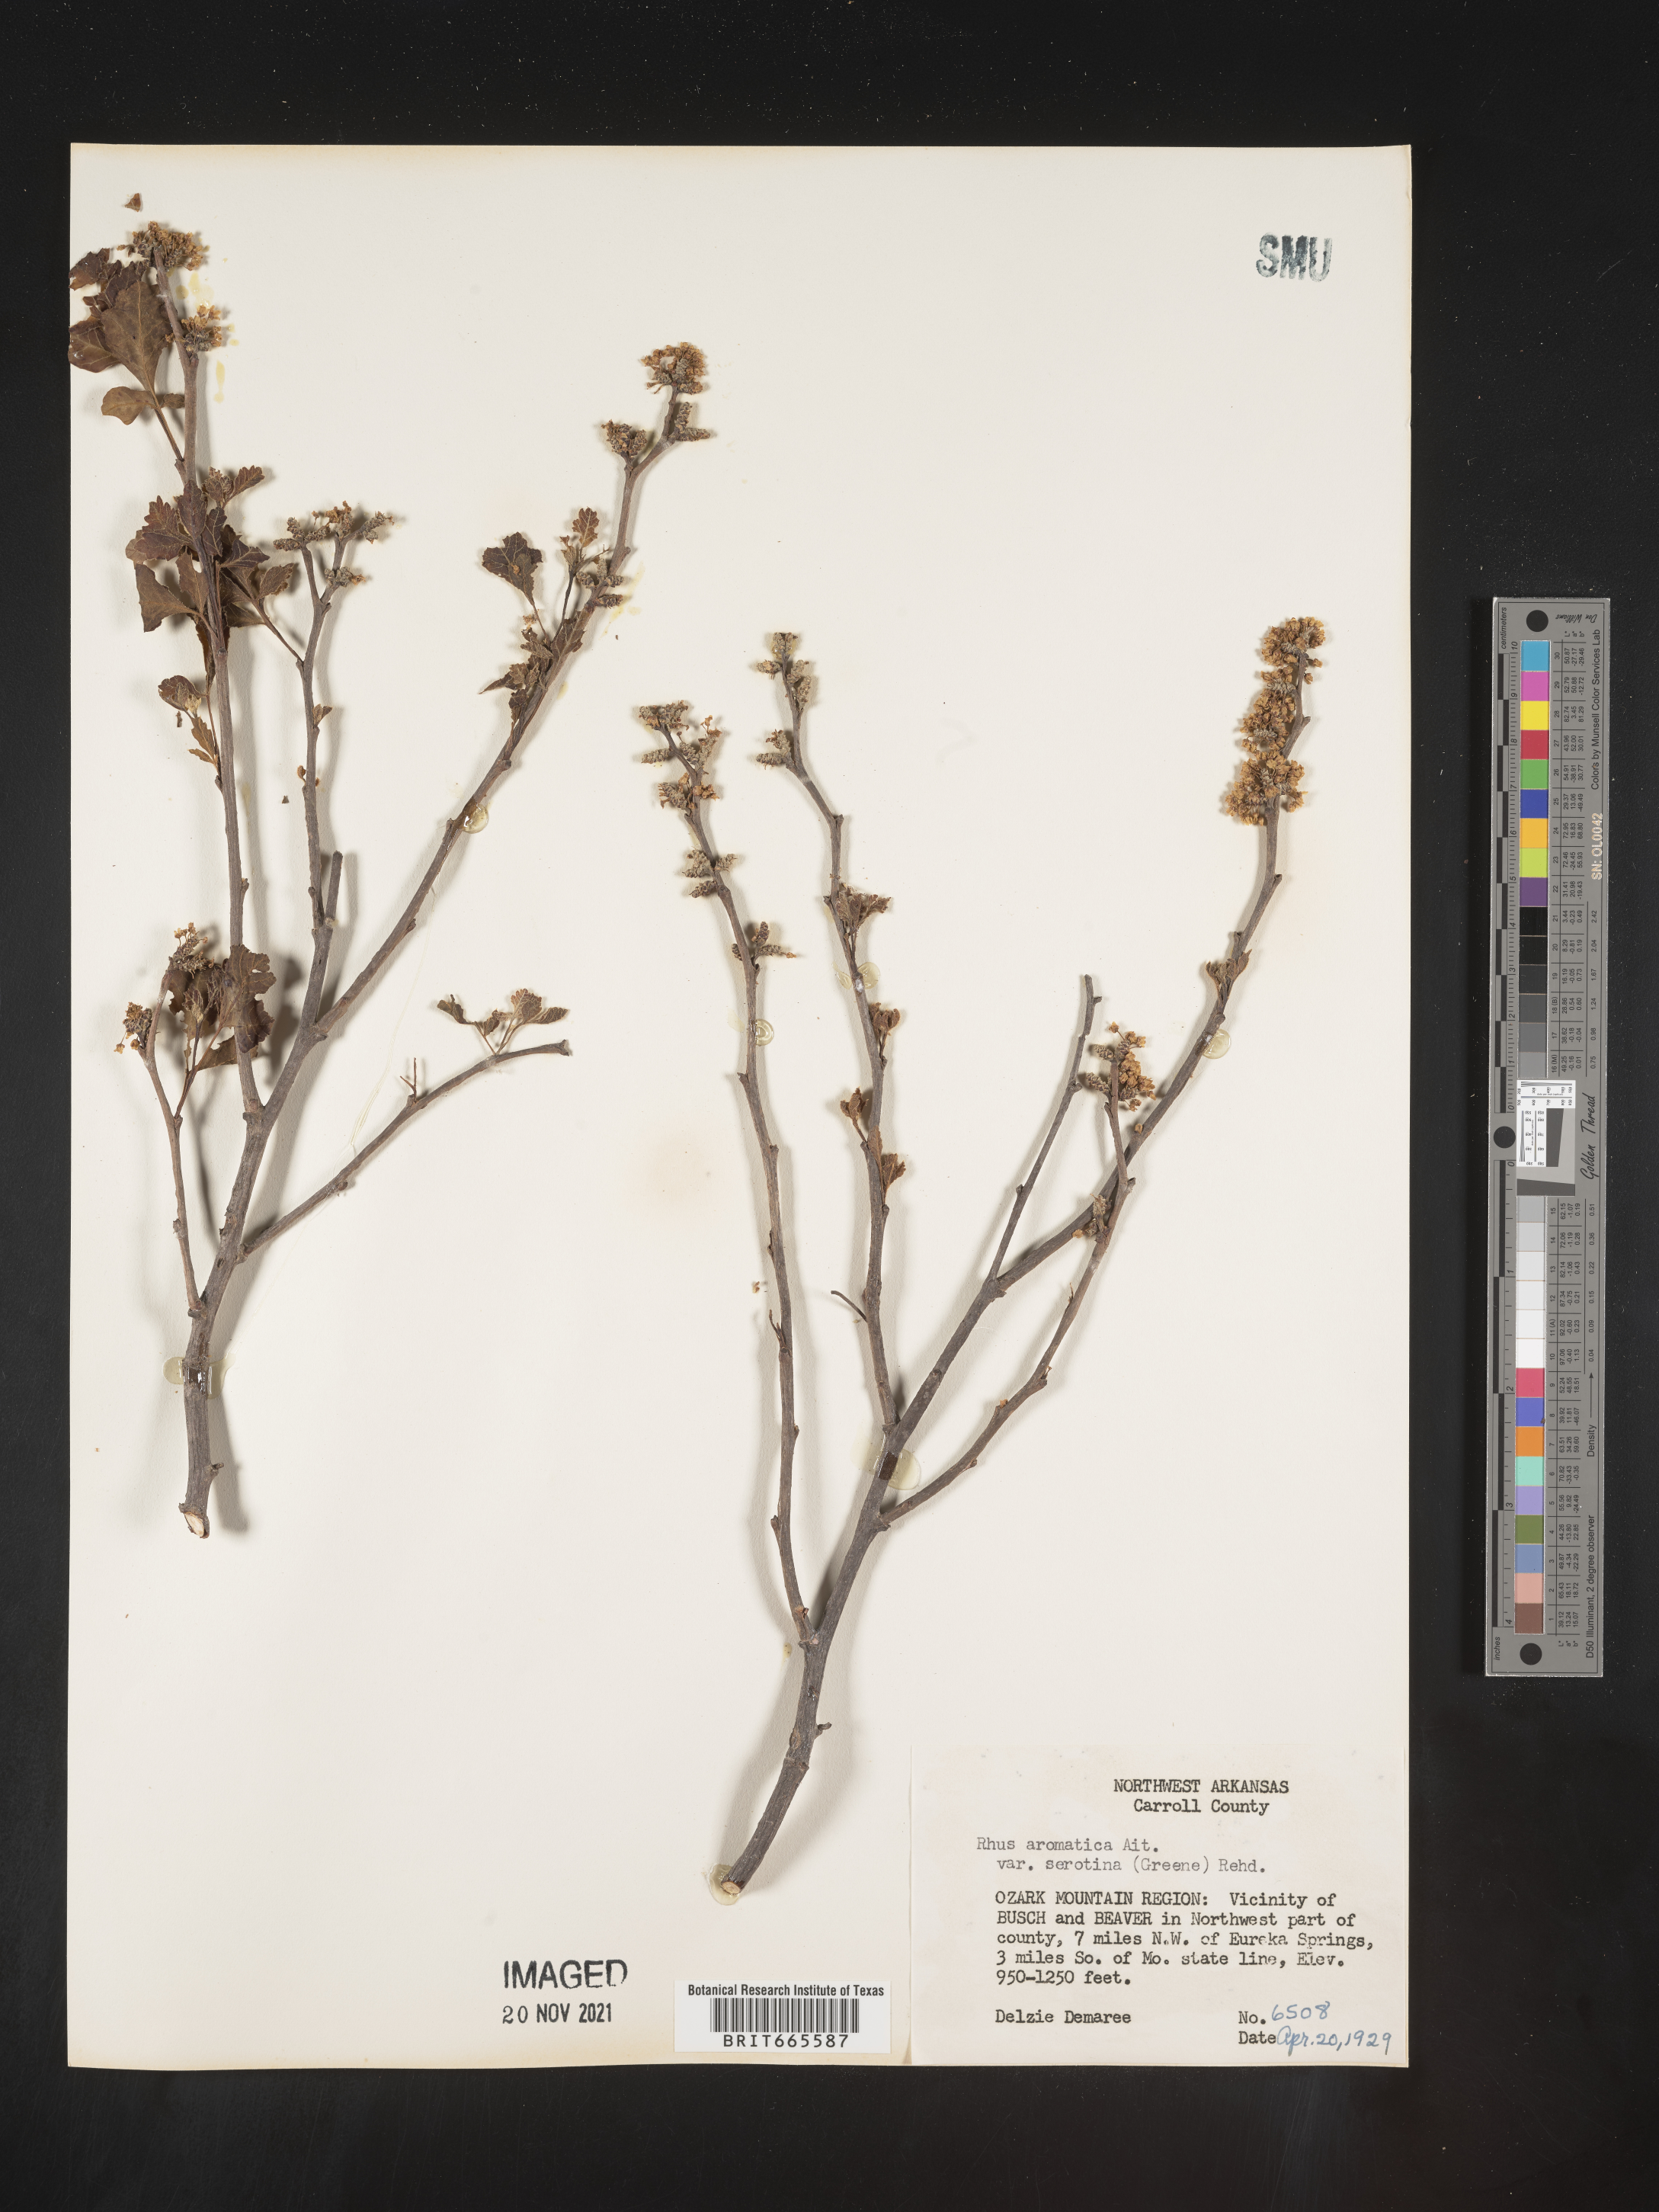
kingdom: Plantae
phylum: Tracheophyta
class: Magnoliopsida
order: Sapindales
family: Anacardiaceae
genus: Rhus
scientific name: Rhus aromatica
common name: Aromatic sumac
